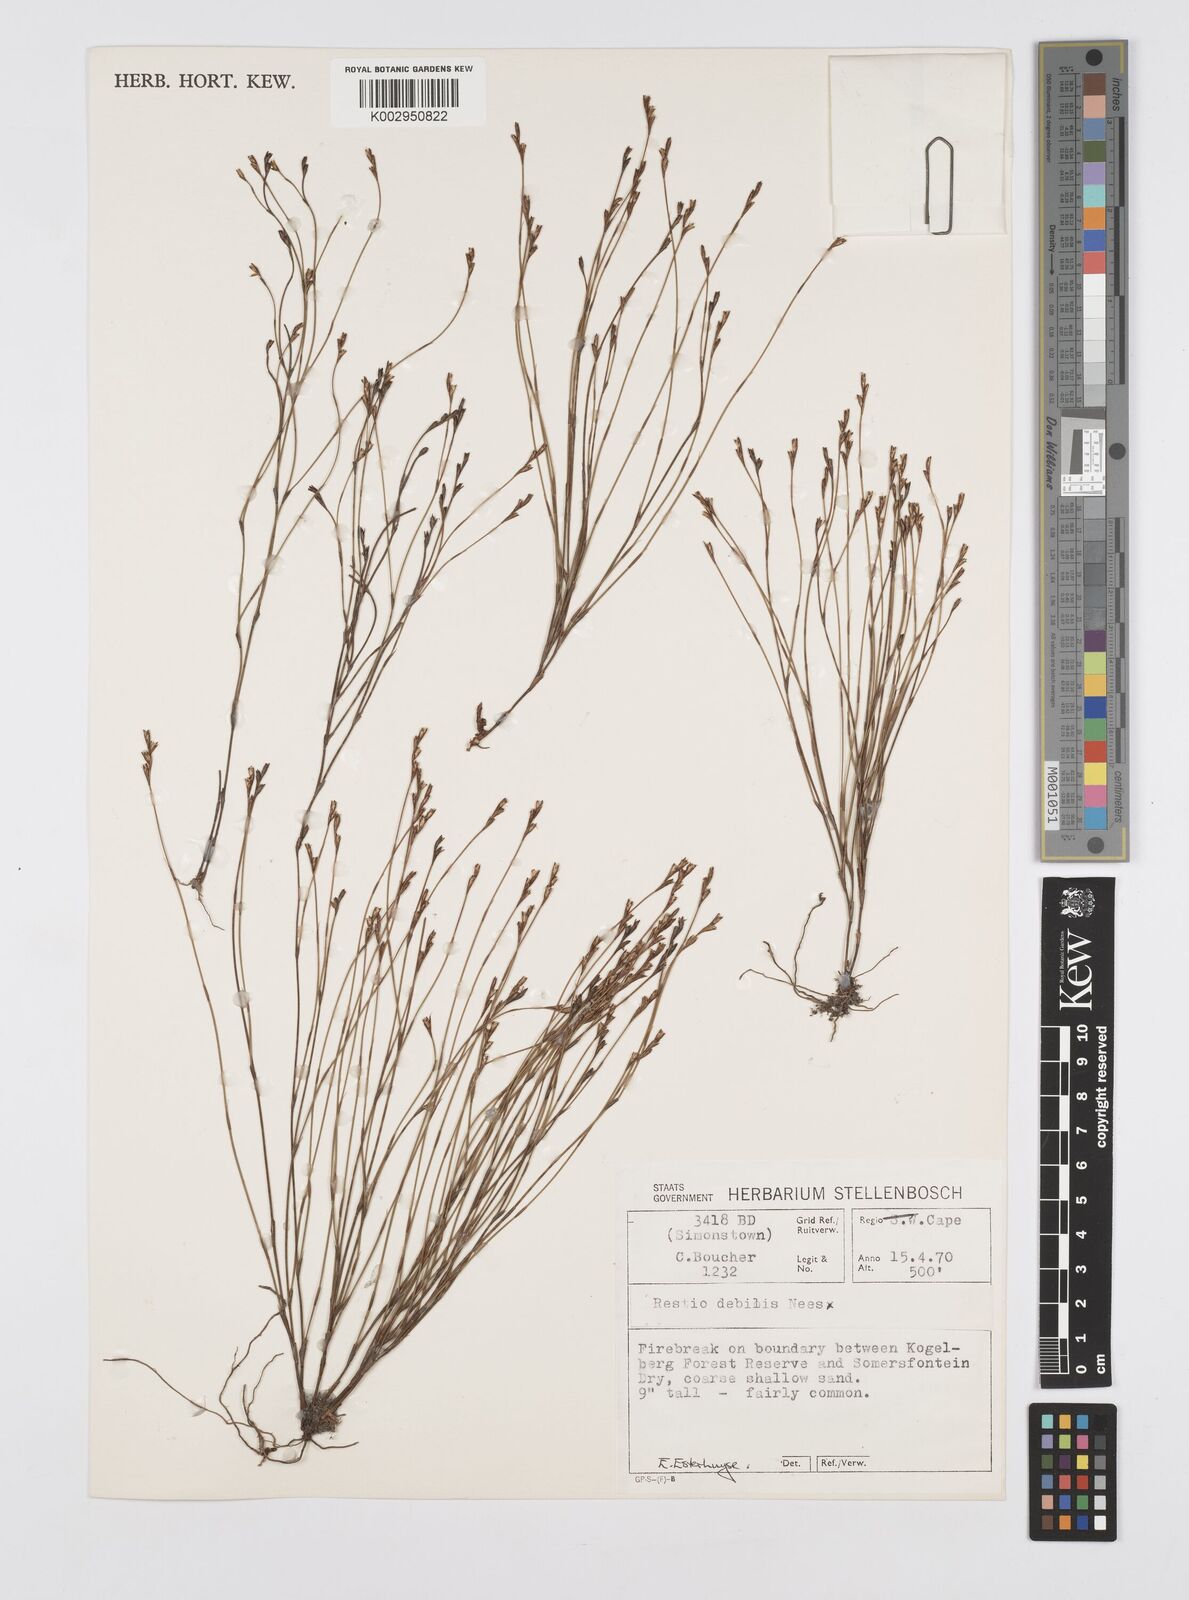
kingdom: Plantae
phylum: Tracheophyta
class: Liliopsida
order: Poales
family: Restionaceae
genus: Restio
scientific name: Restio debilis
